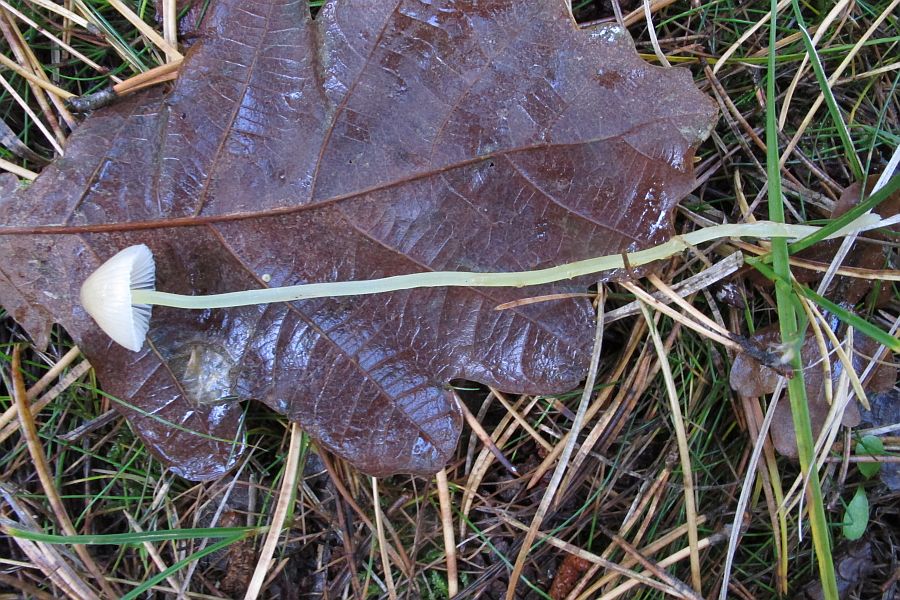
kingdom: Fungi
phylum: Basidiomycota
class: Agaricomycetes
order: Agaricales
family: Mycenaceae
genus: Mycena
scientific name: Mycena epipterygia
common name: gulstokket huesvamp
